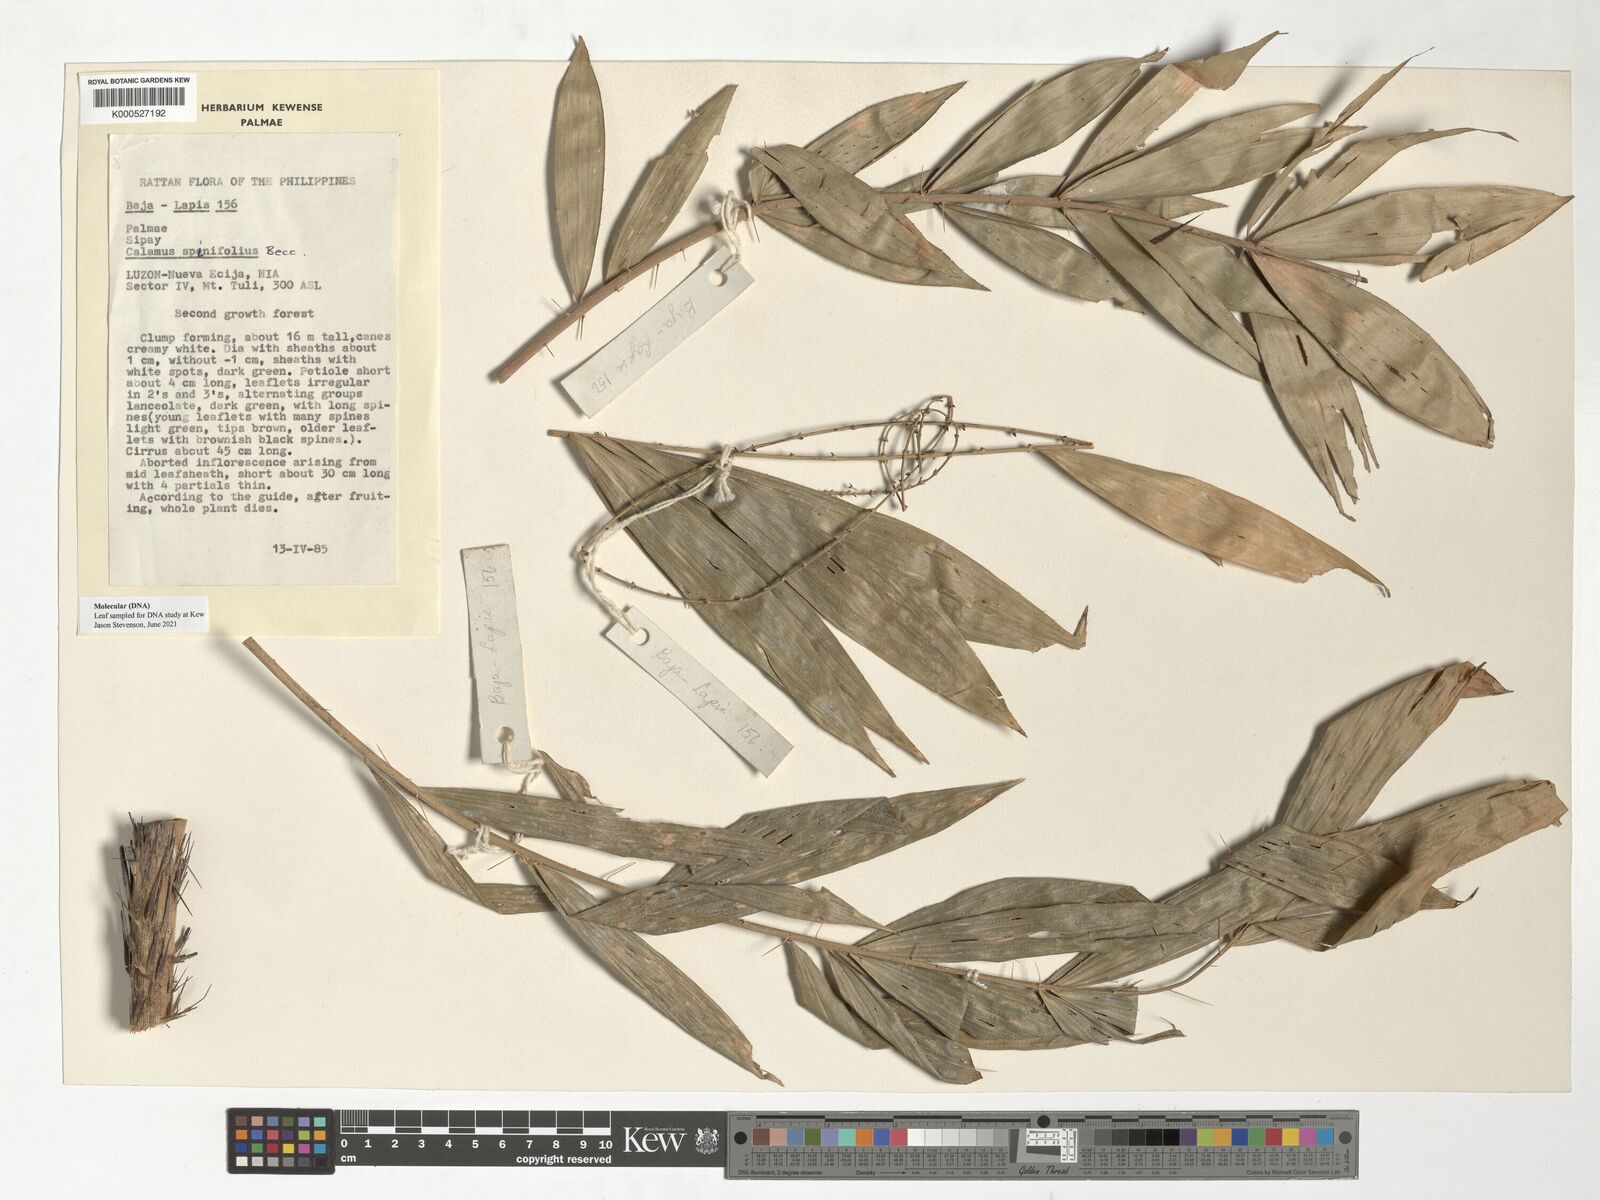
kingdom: Plantae
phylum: Tracheophyta
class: Liliopsida
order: Arecales
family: Arecaceae
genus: Calamus
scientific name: Calamus moseleyanus
